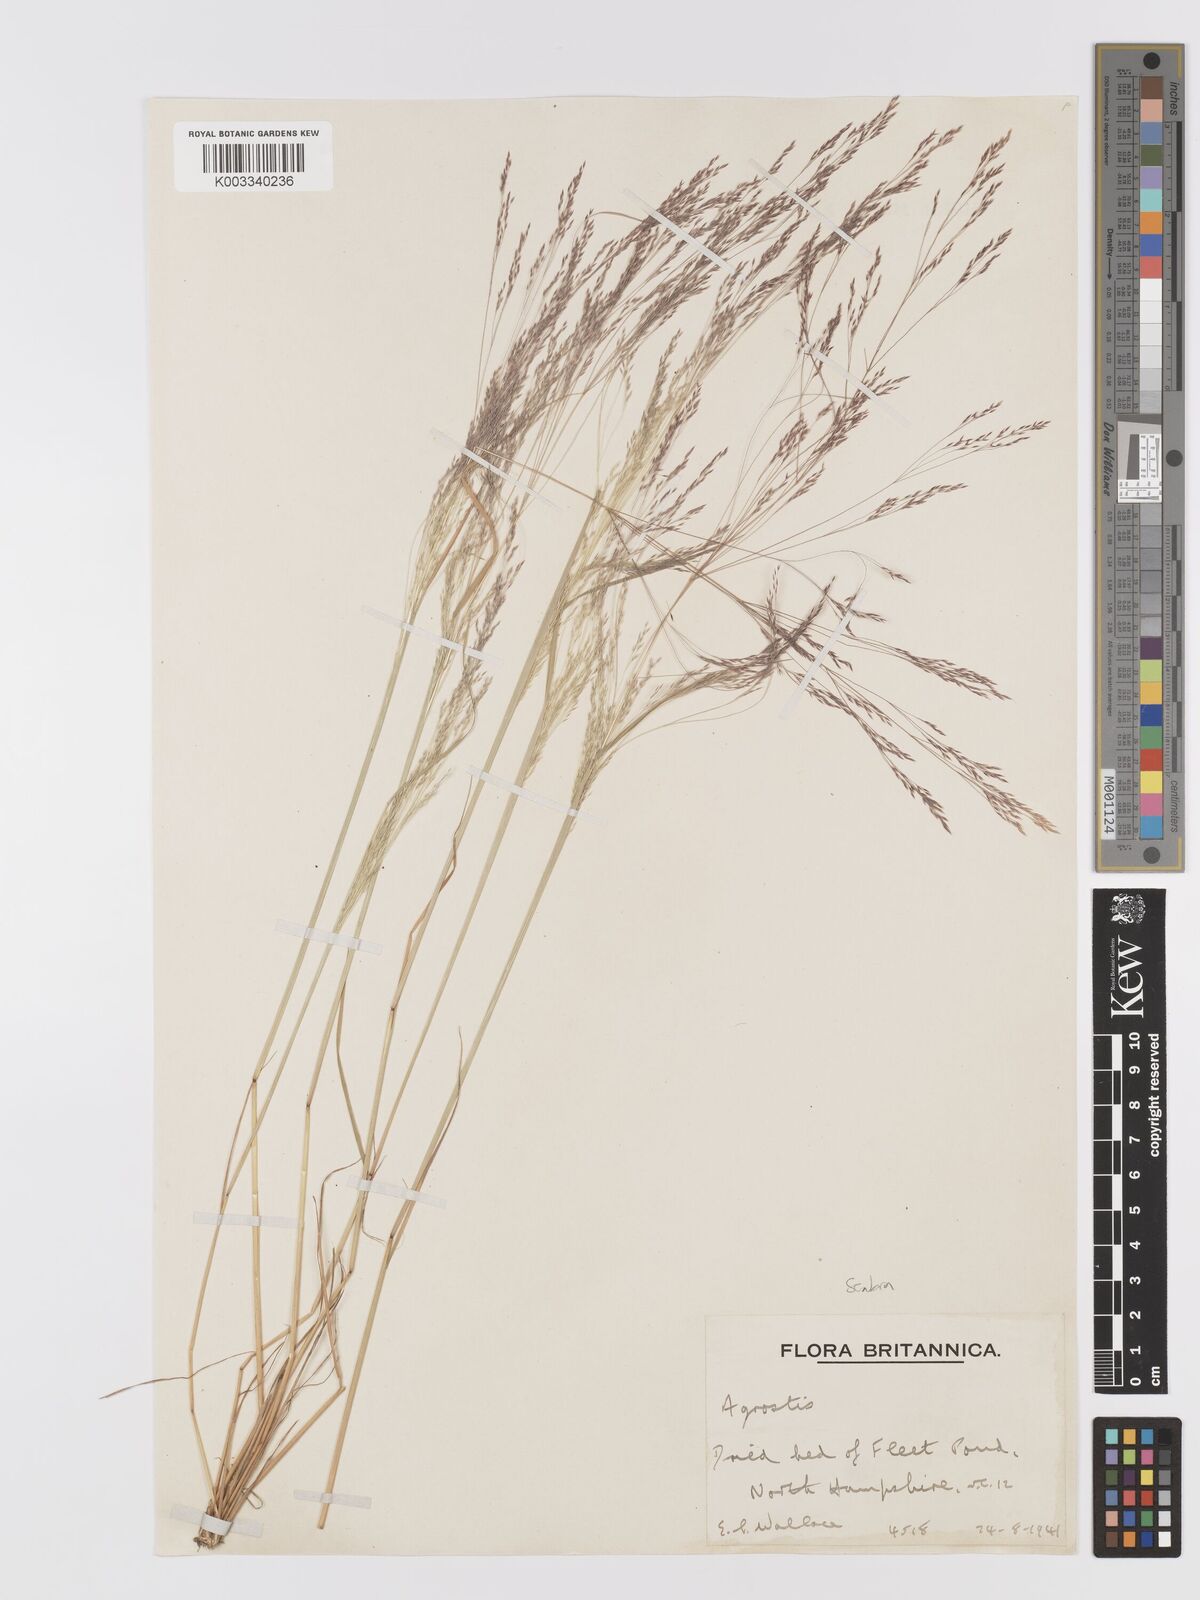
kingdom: Plantae
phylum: Tracheophyta
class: Liliopsida
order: Poales
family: Poaceae
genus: Agrostis
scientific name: Agrostis scabra
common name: Rough bent
